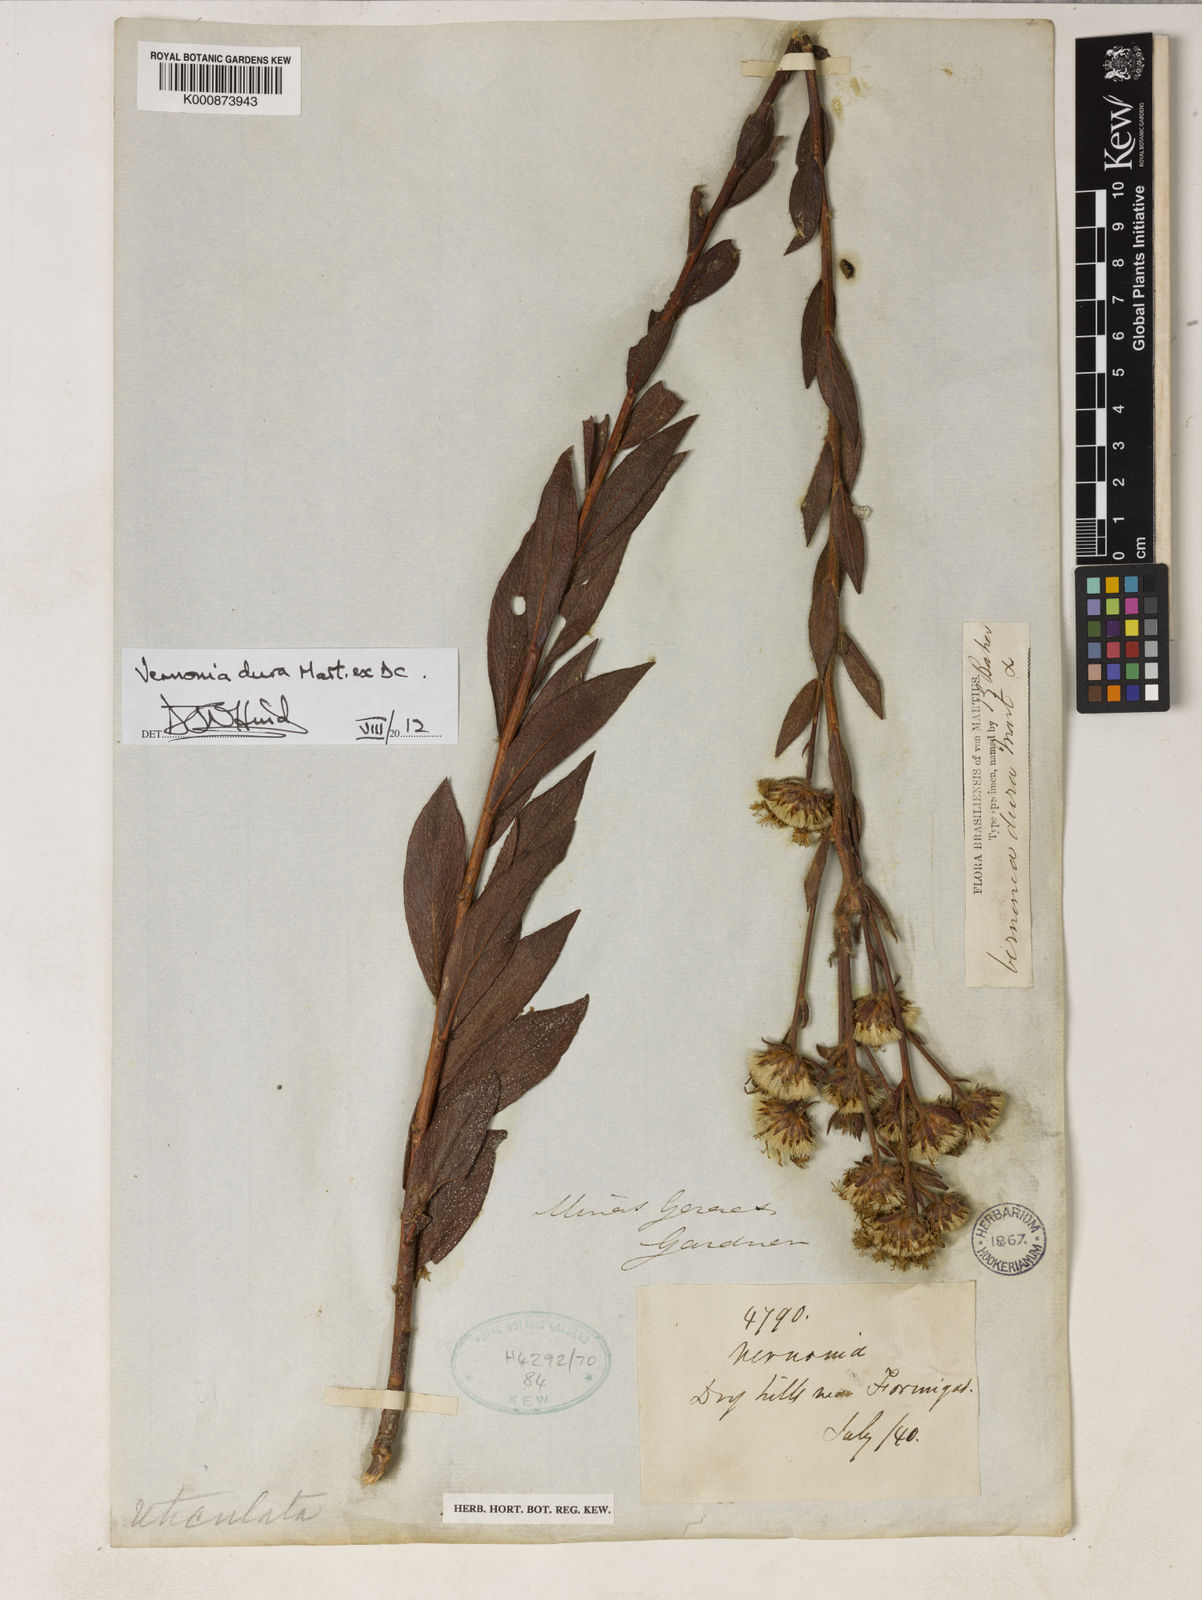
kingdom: Plantae
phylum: Tracheophyta
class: Magnoliopsida
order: Asterales
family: Asteraceae
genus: Lessingianthus
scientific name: Lessingianthus durus
